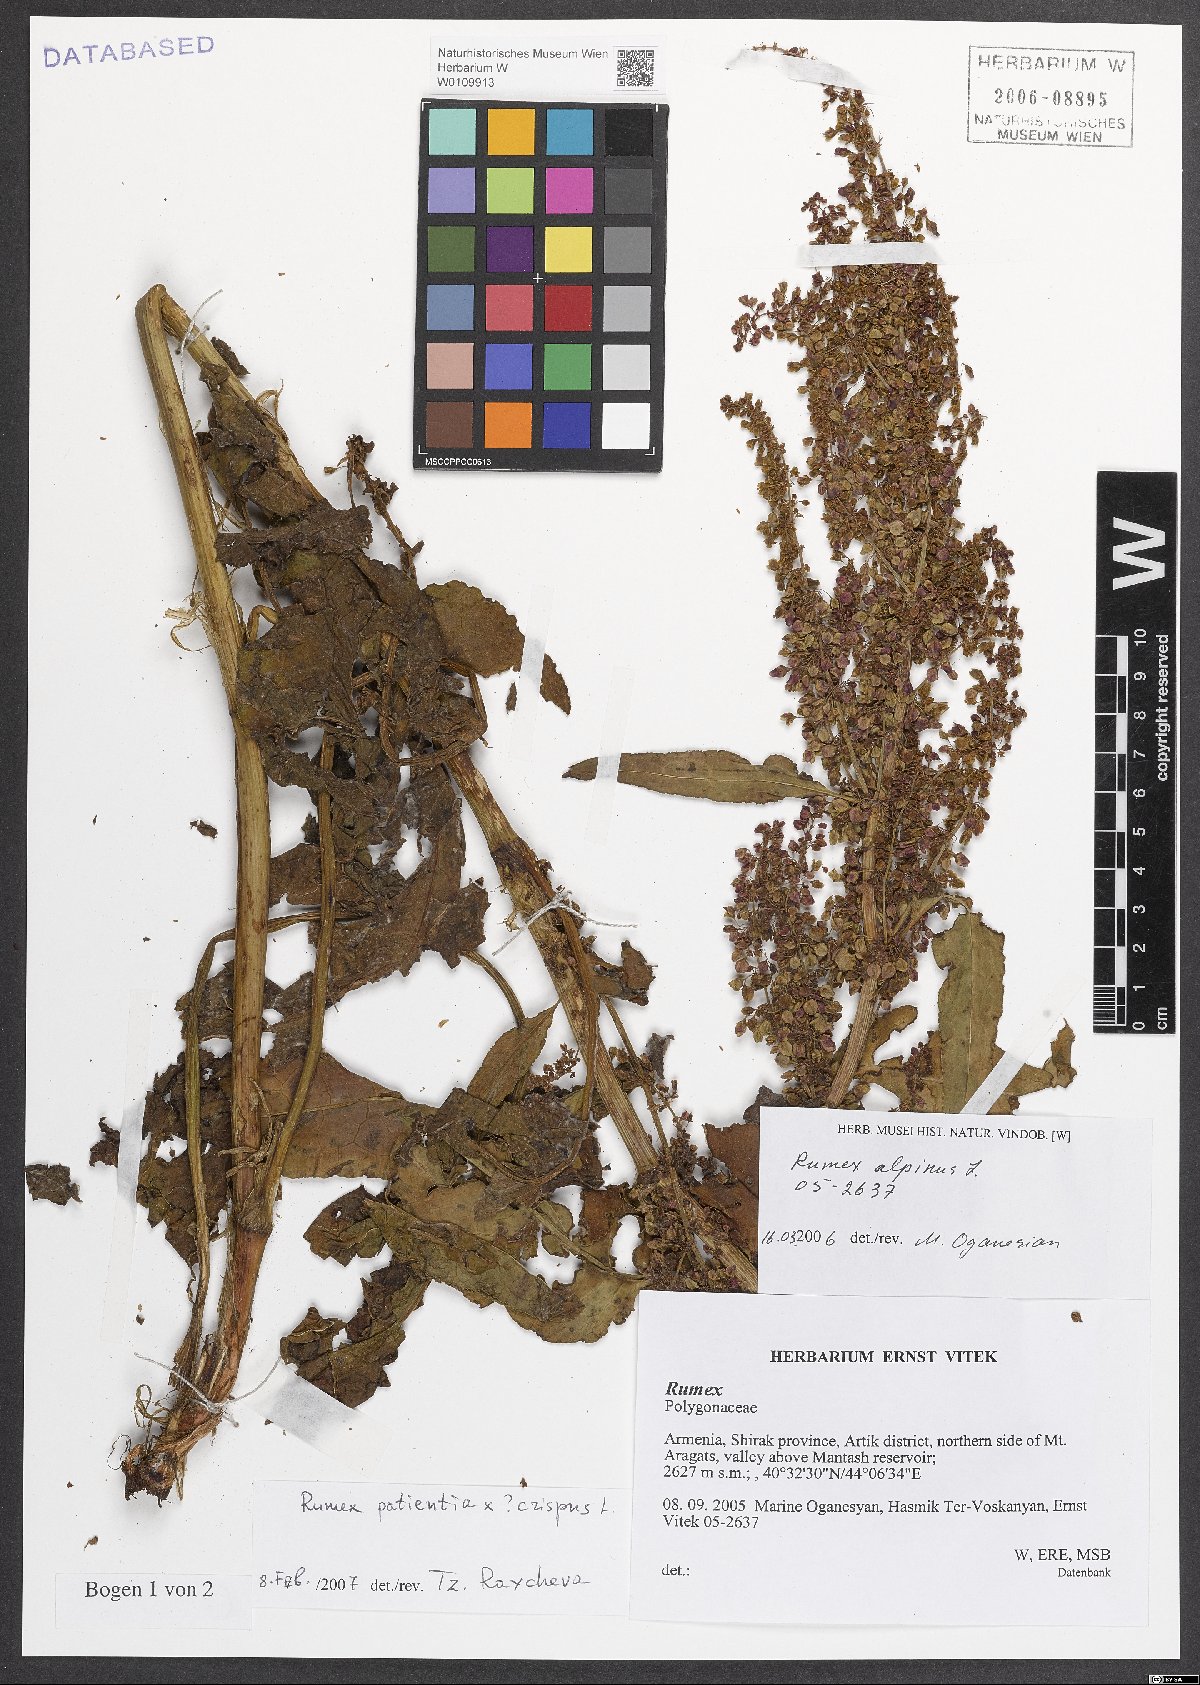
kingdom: Plantae
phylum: Tracheophyta
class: Magnoliopsida
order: Caryophyllales
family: Polygonaceae
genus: Rumex
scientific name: Rumex
